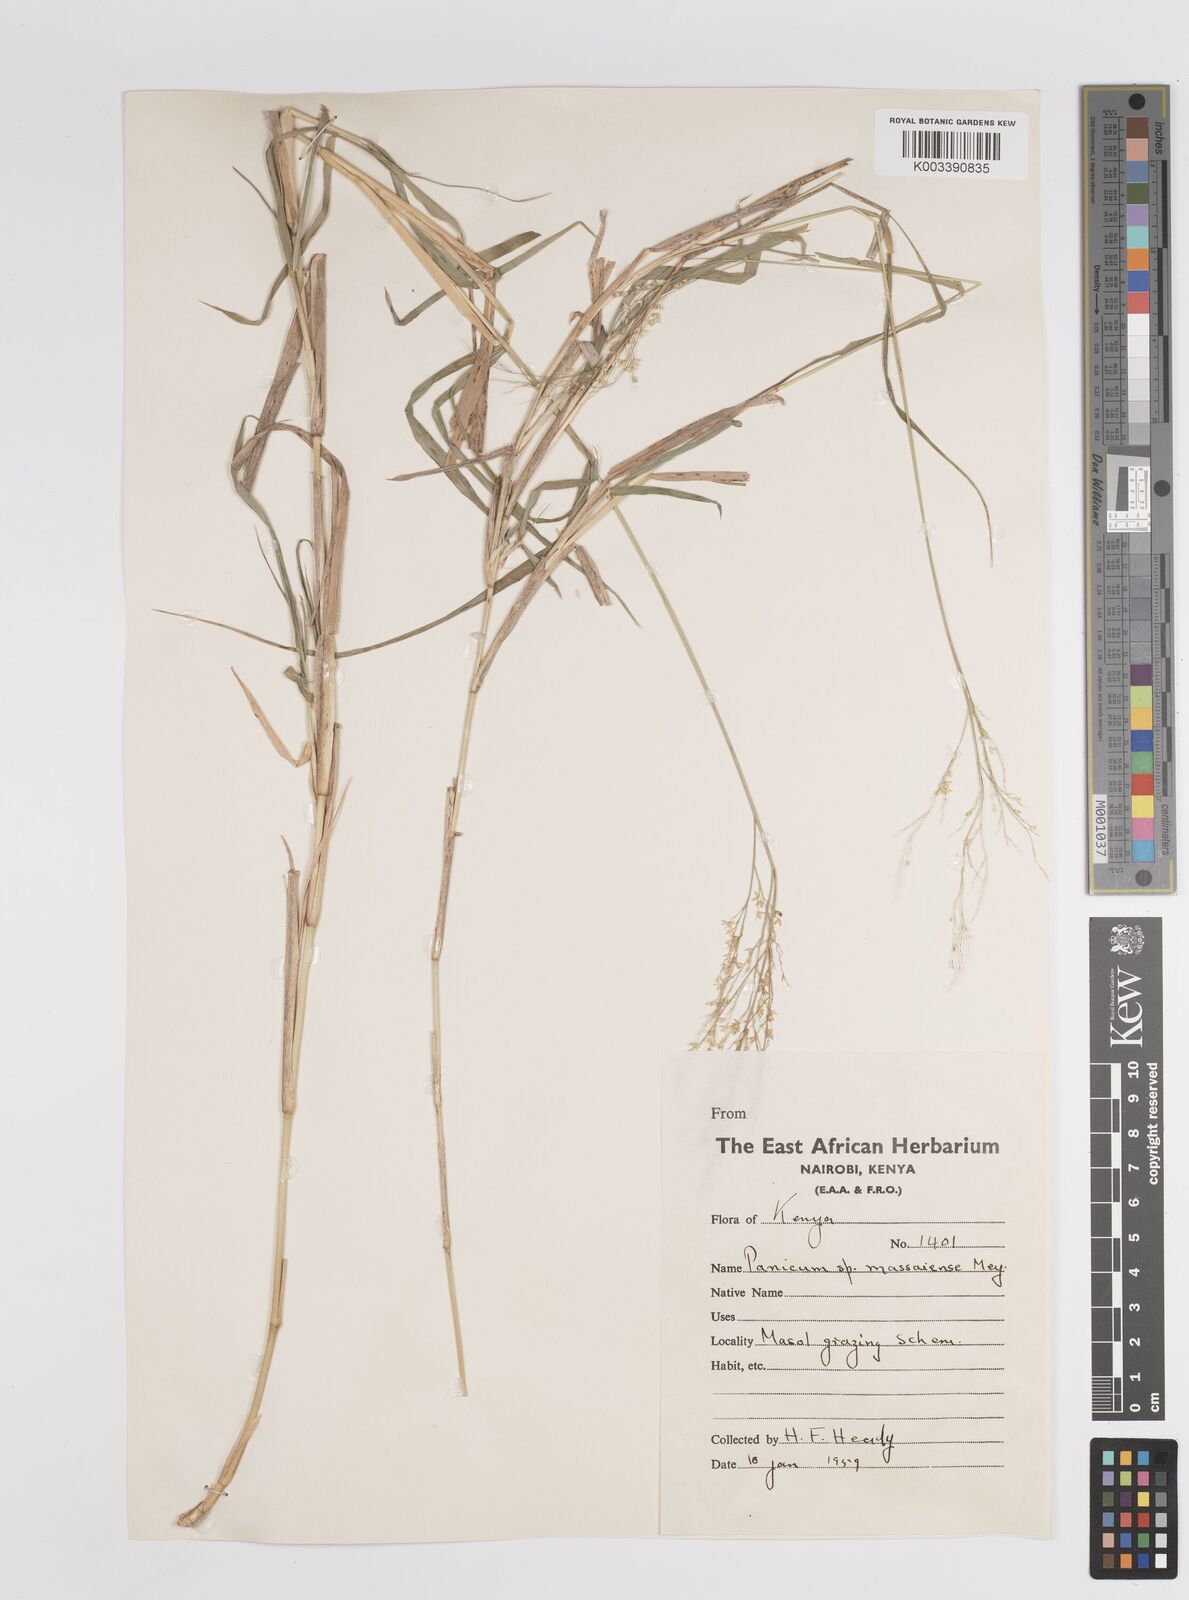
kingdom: Plantae
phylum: Tracheophyta
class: Liliopsida
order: Poales
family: Poaceae
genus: Panicum
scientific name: Panicum coloratum
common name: Kleingrass
